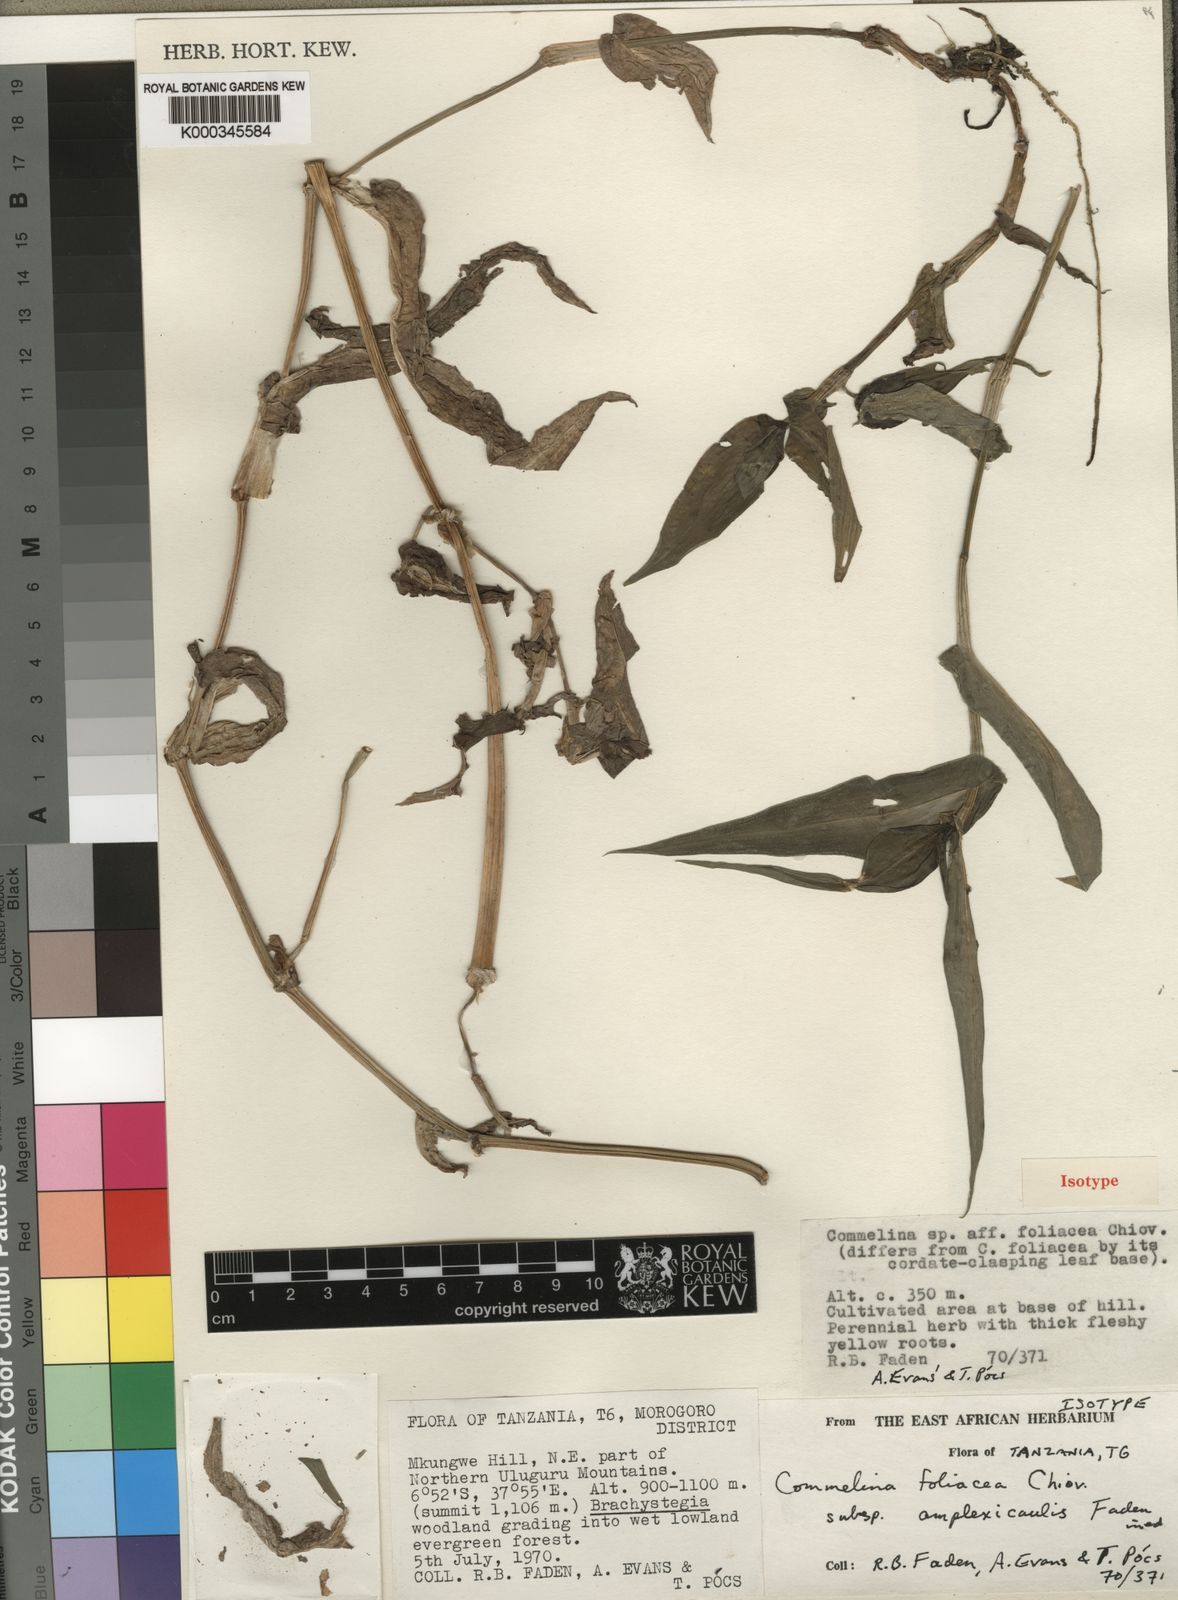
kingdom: Plantae
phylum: Tracheophyta
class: Liliopsida
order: Commelinales
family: Commelinaceae
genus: Commelina
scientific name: Commelina foliacea
